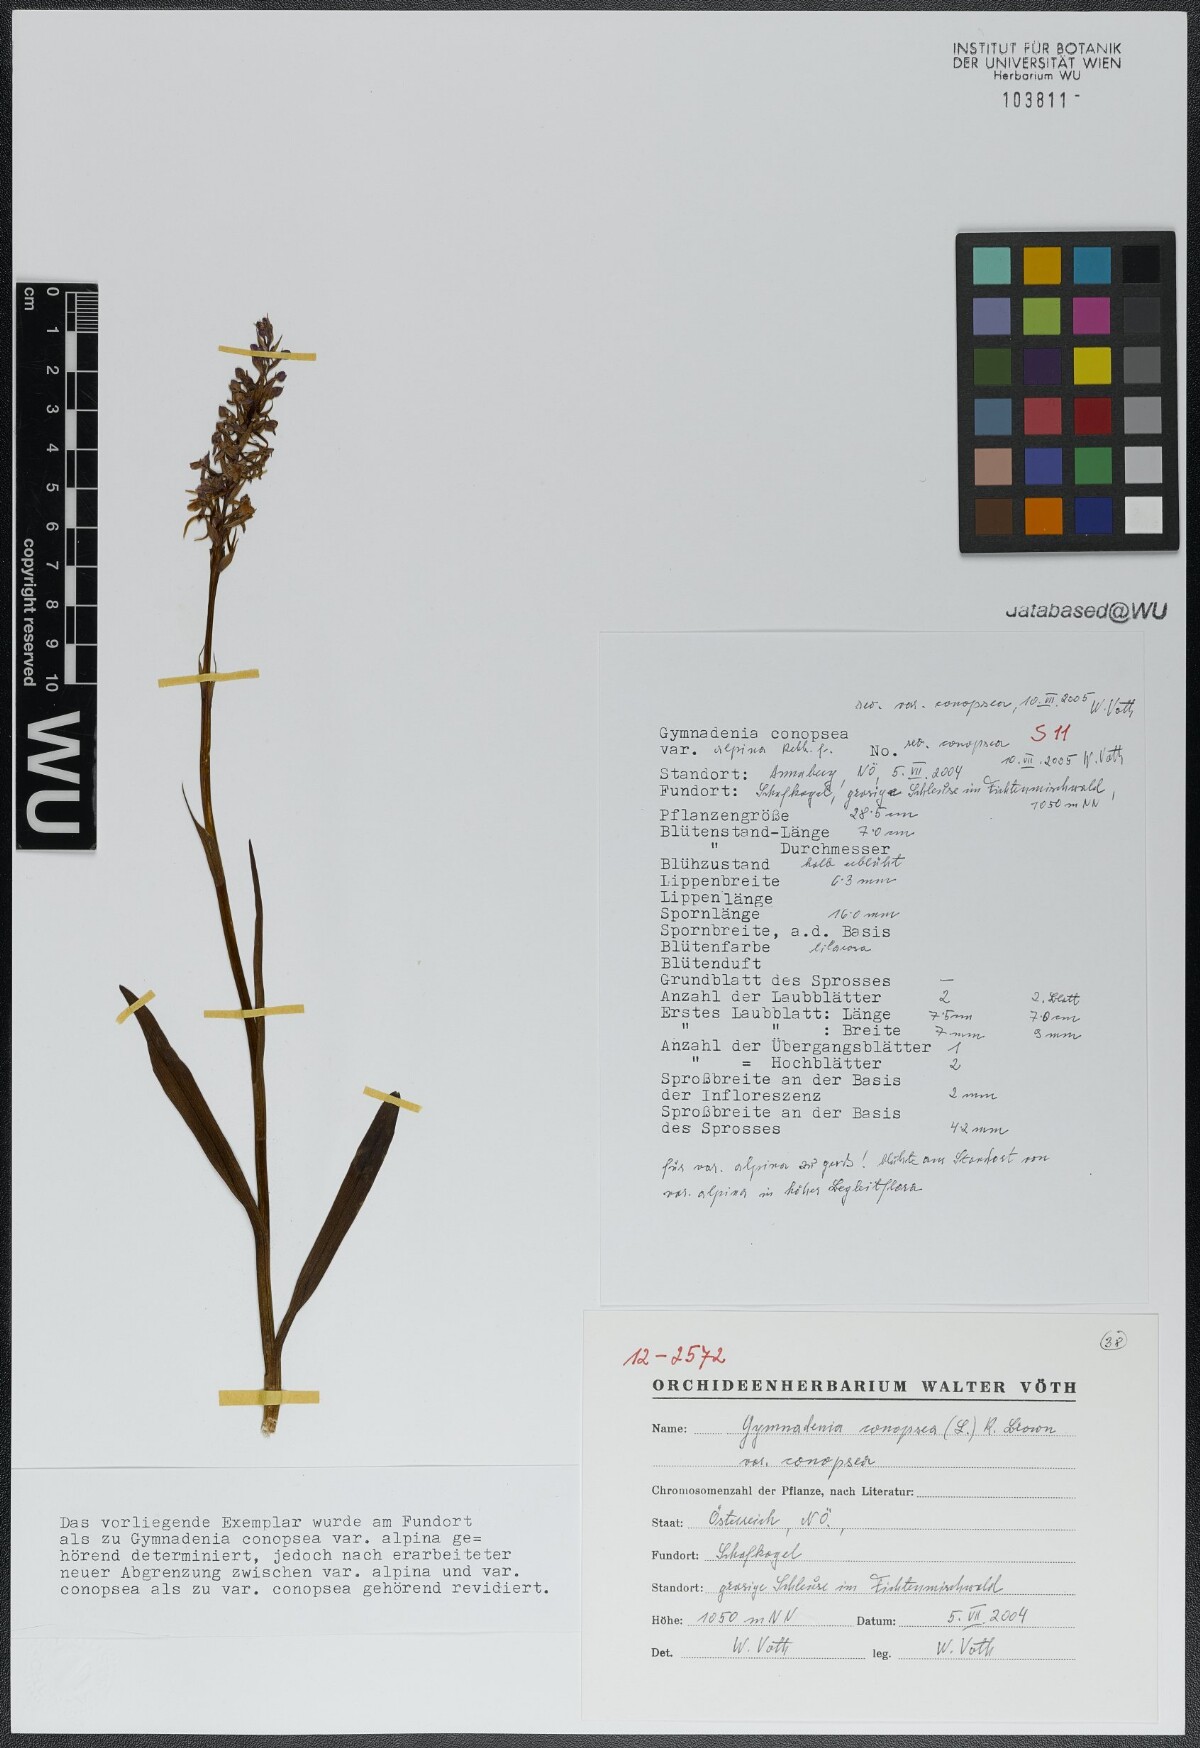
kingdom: Plantae
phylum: Tracheophyta
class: Liliopsida
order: Asparagales
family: Orchidaceae
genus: Gymnadenia
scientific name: Gymnadenia conopsea
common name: Fragrant orchid
